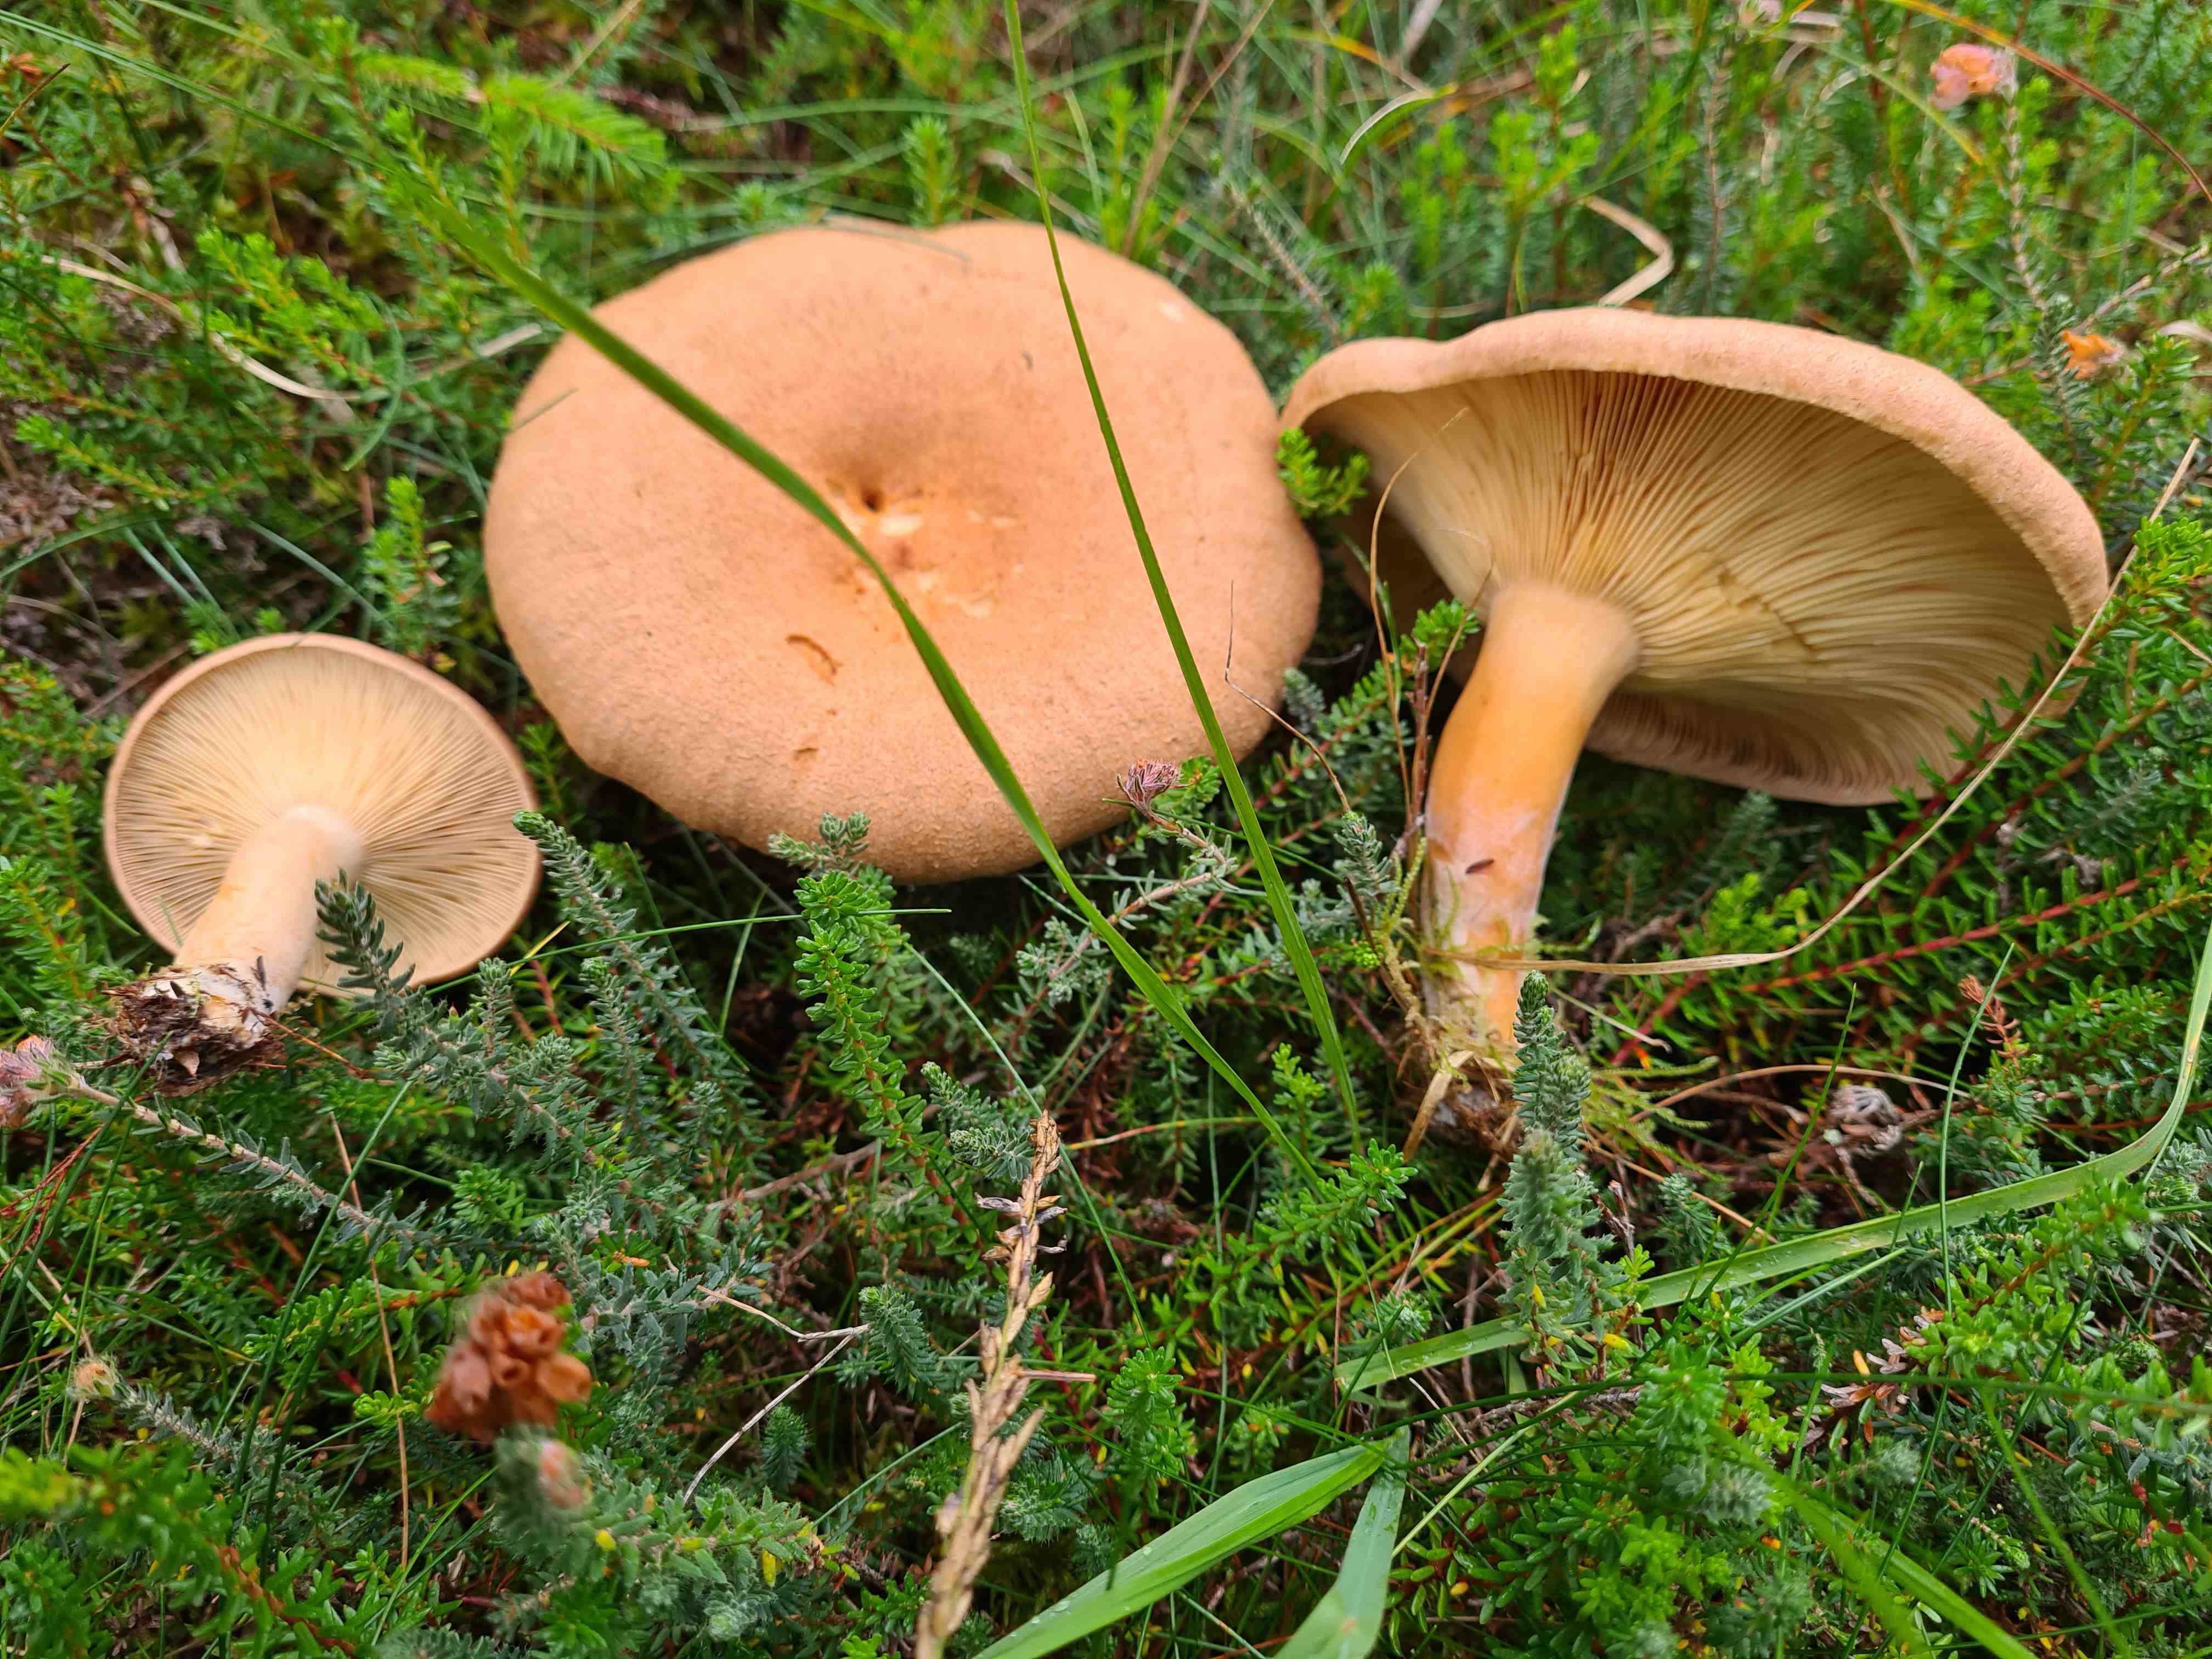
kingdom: Fungi
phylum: Basidiomycota
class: Agaricomycetes
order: Russulales
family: Russulaceae
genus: Lactarius
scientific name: Lactarius helvus
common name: mose-mælkehat
